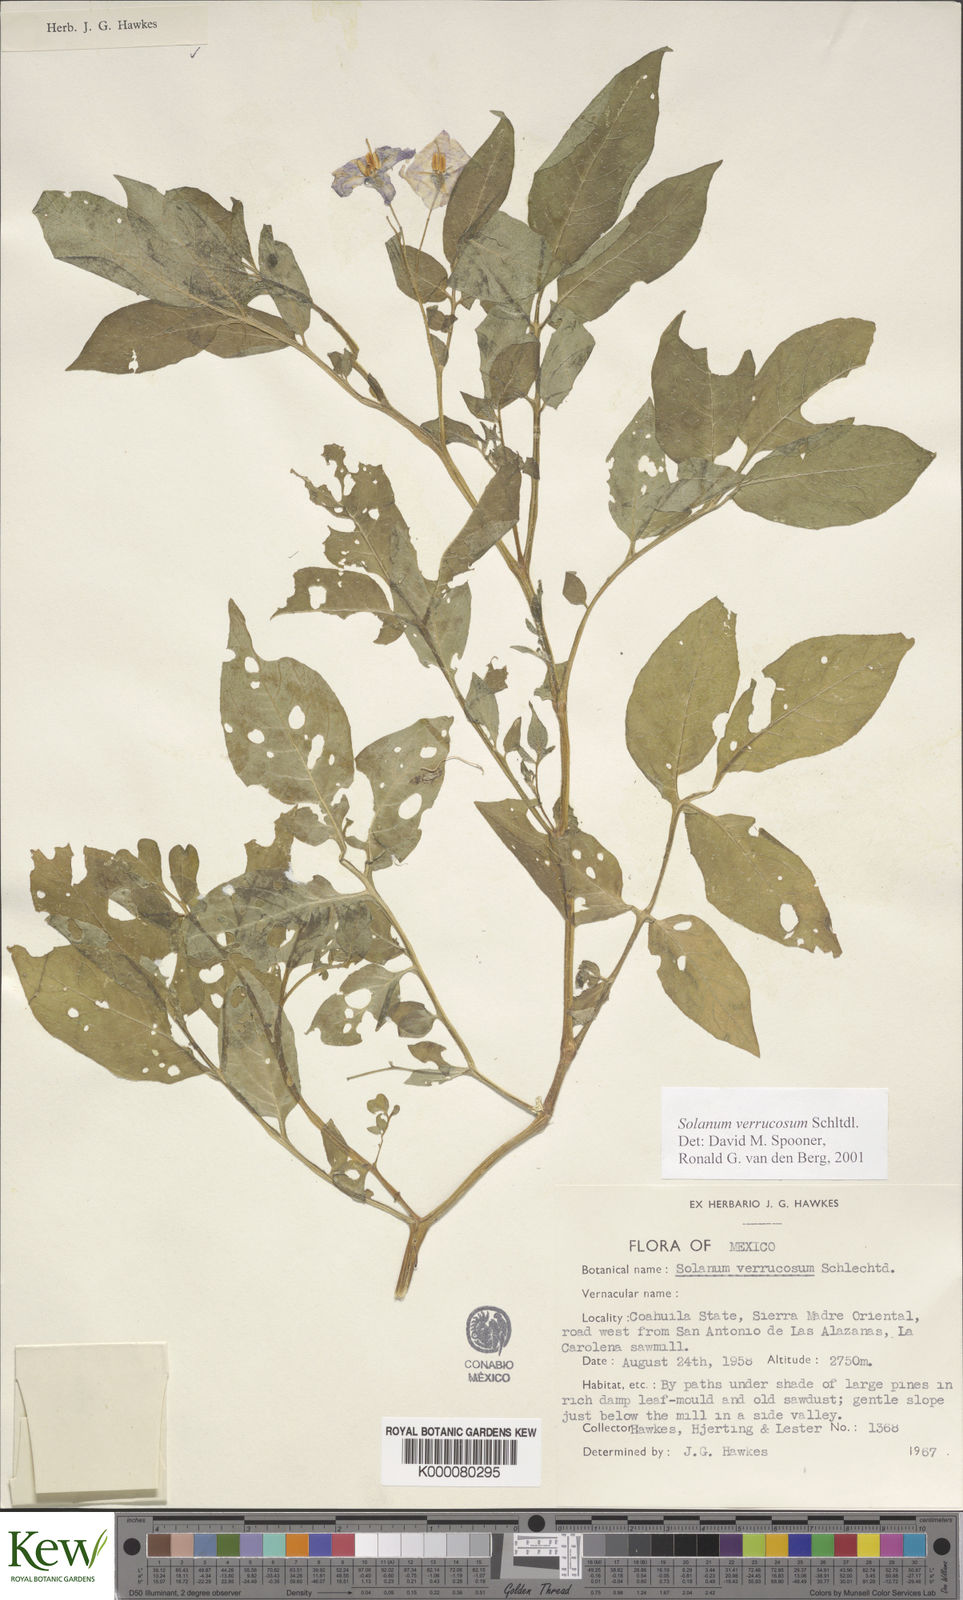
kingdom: Plantae
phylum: Tracheophyta
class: Magnoliopsida
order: Solanales
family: Solanaceae
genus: Solanum
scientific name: Solanum verrucosum
